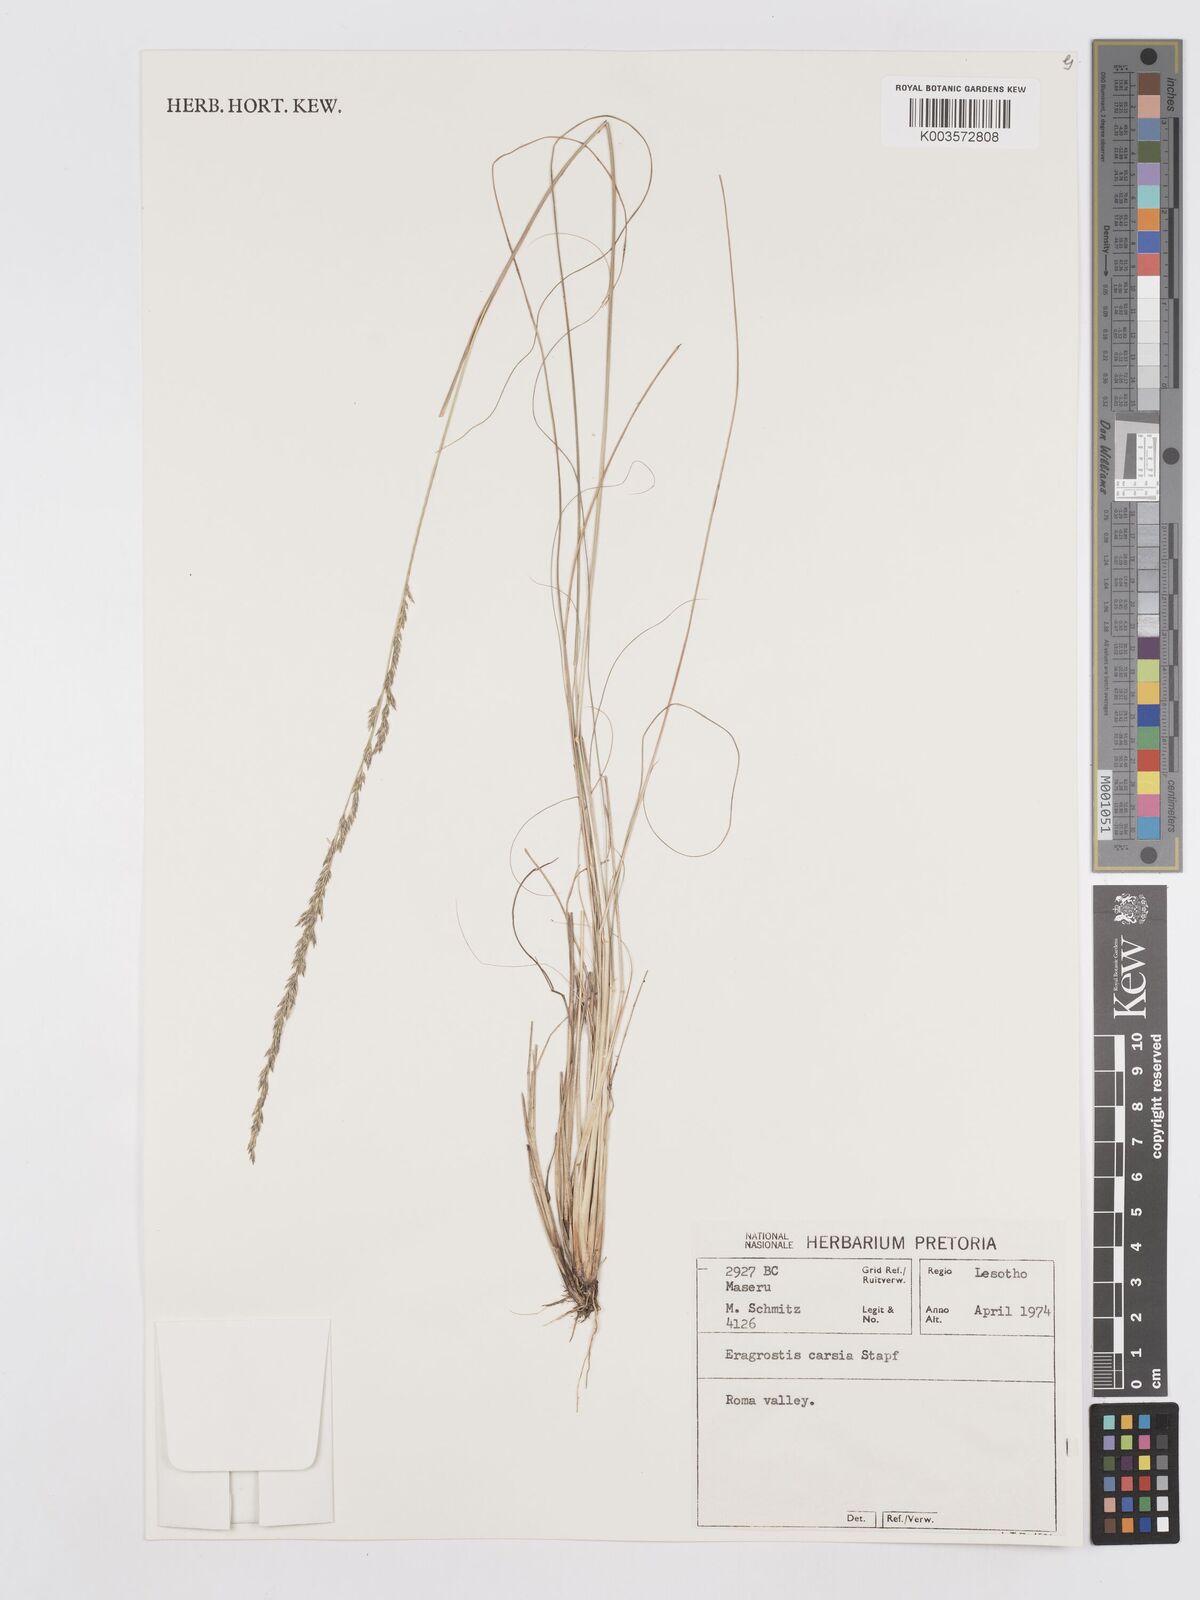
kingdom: Plantae
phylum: Tracheophyta
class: Liliopsida
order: Poales
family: Poaceae
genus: Eragrostis
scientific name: Eragrostis caesia
